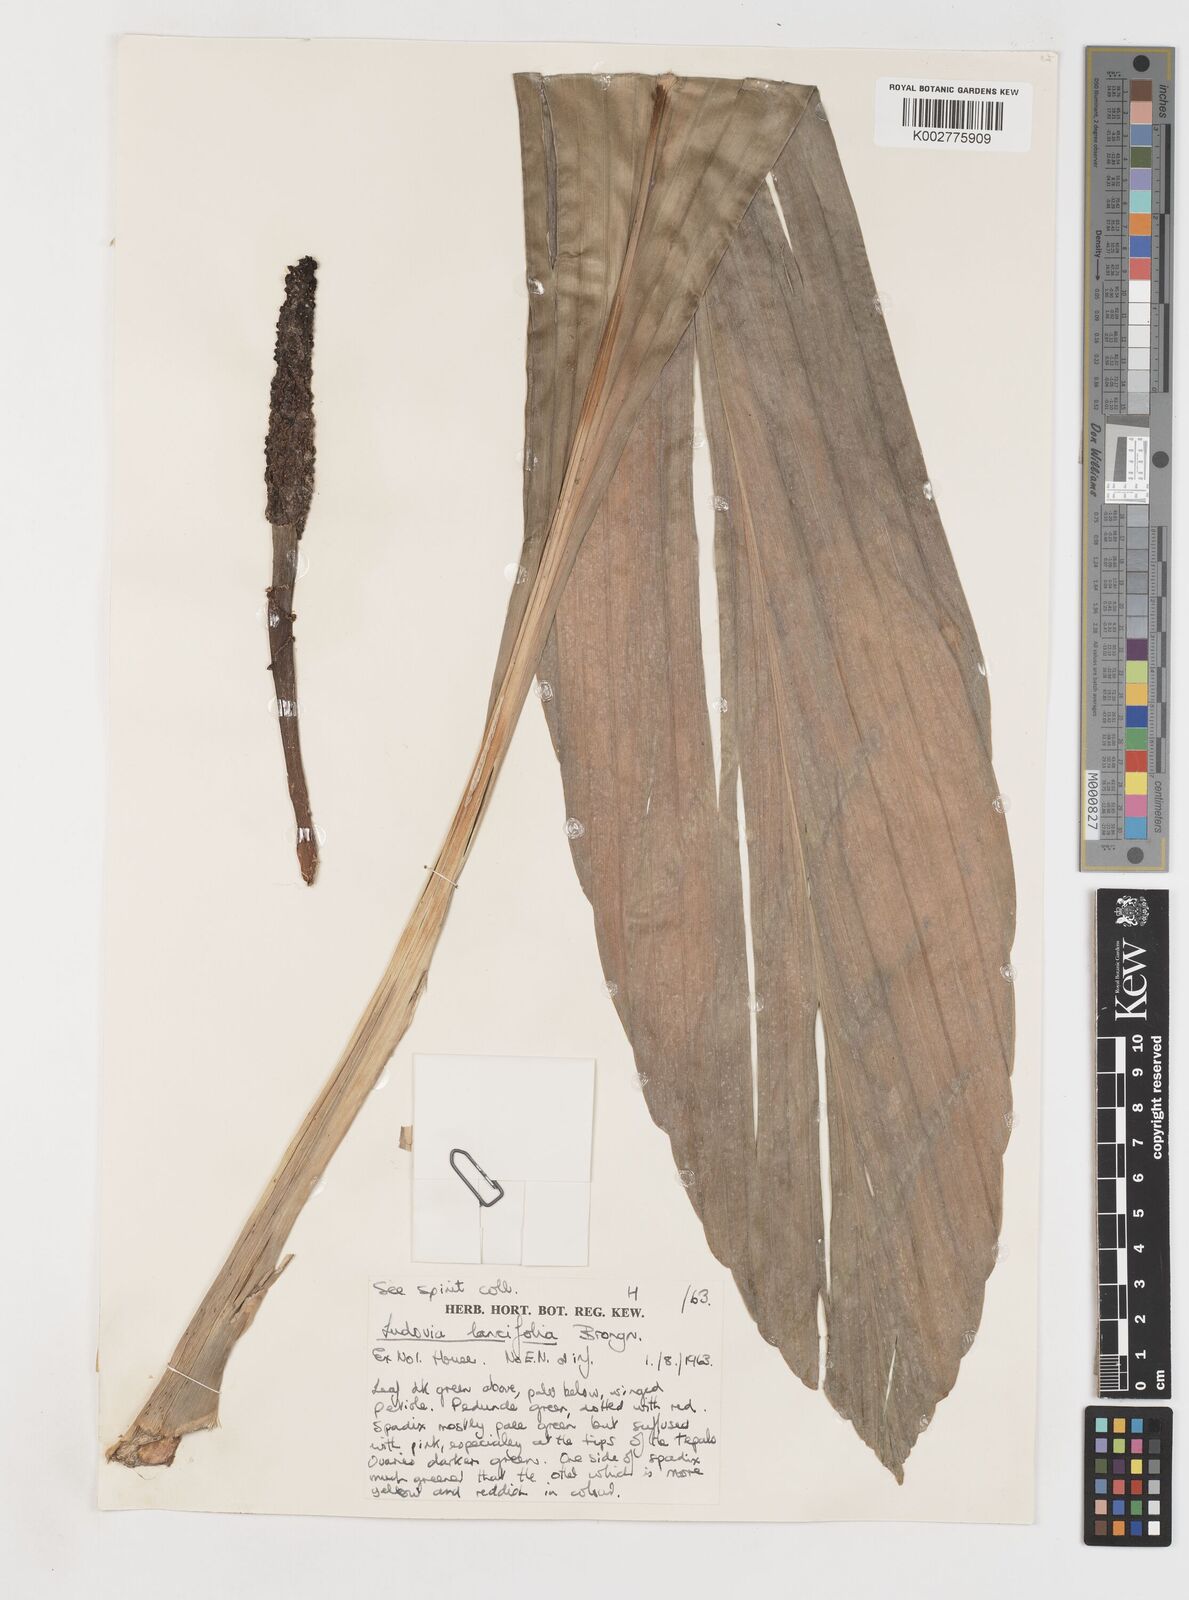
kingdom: Plantae
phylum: Tracheophyta
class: Liliopsida
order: Pandanales
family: Cyclanthaceae
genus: Ludovia
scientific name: Ludovia lancifolia
